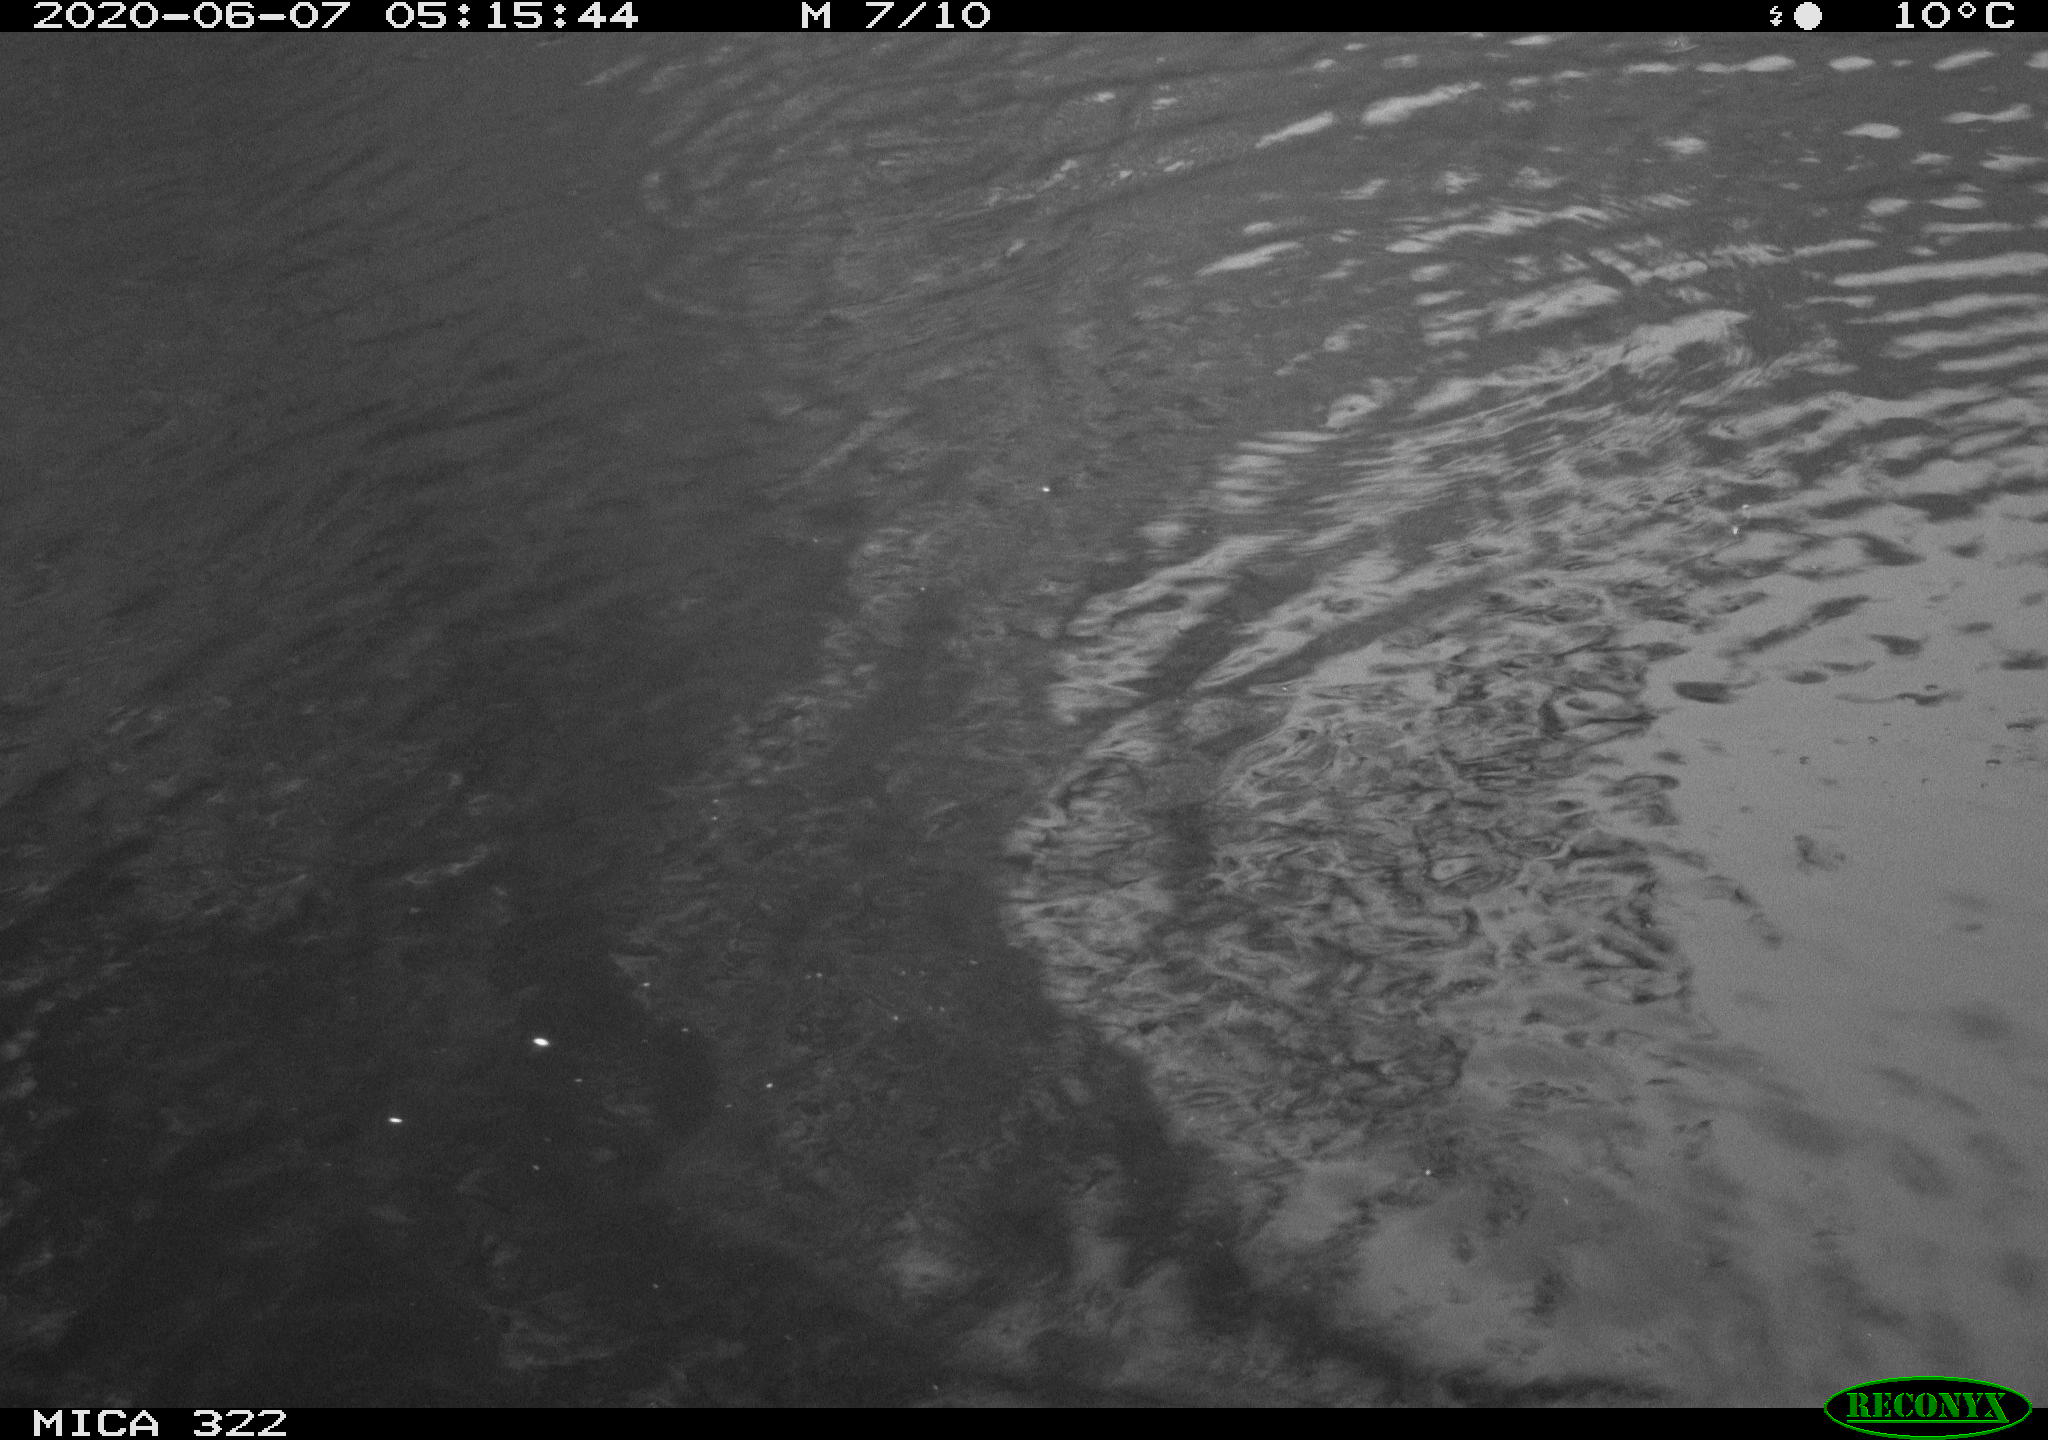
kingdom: Animalia
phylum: Chordata
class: Aves
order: Anseriformes
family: Anatidae
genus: Anas
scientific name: Anas platyrhynchos
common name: Mallard
